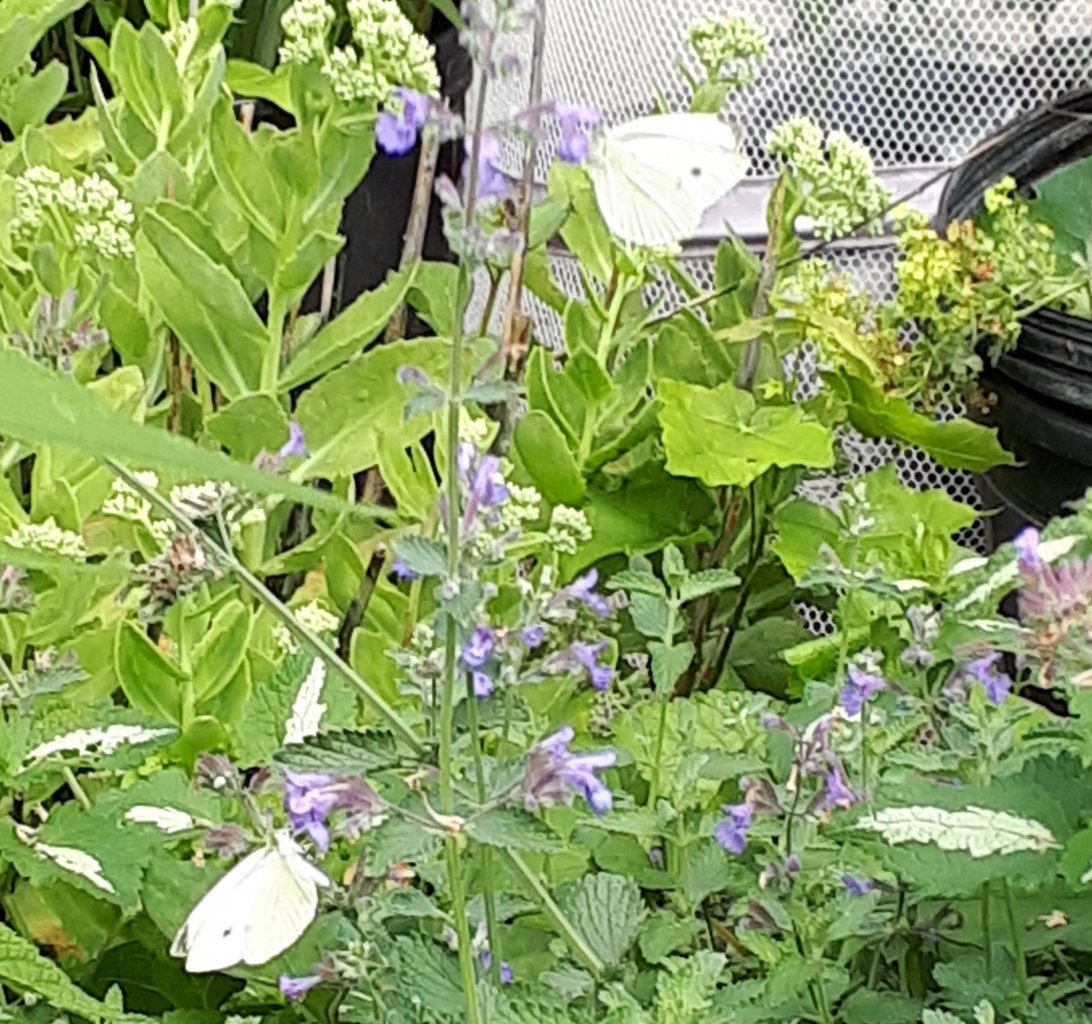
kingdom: Animalia
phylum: Arthropoda
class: Insecta
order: Lepidoptera
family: Pieridae
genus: Pieris
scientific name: Pieris rapae
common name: Cabbage White
